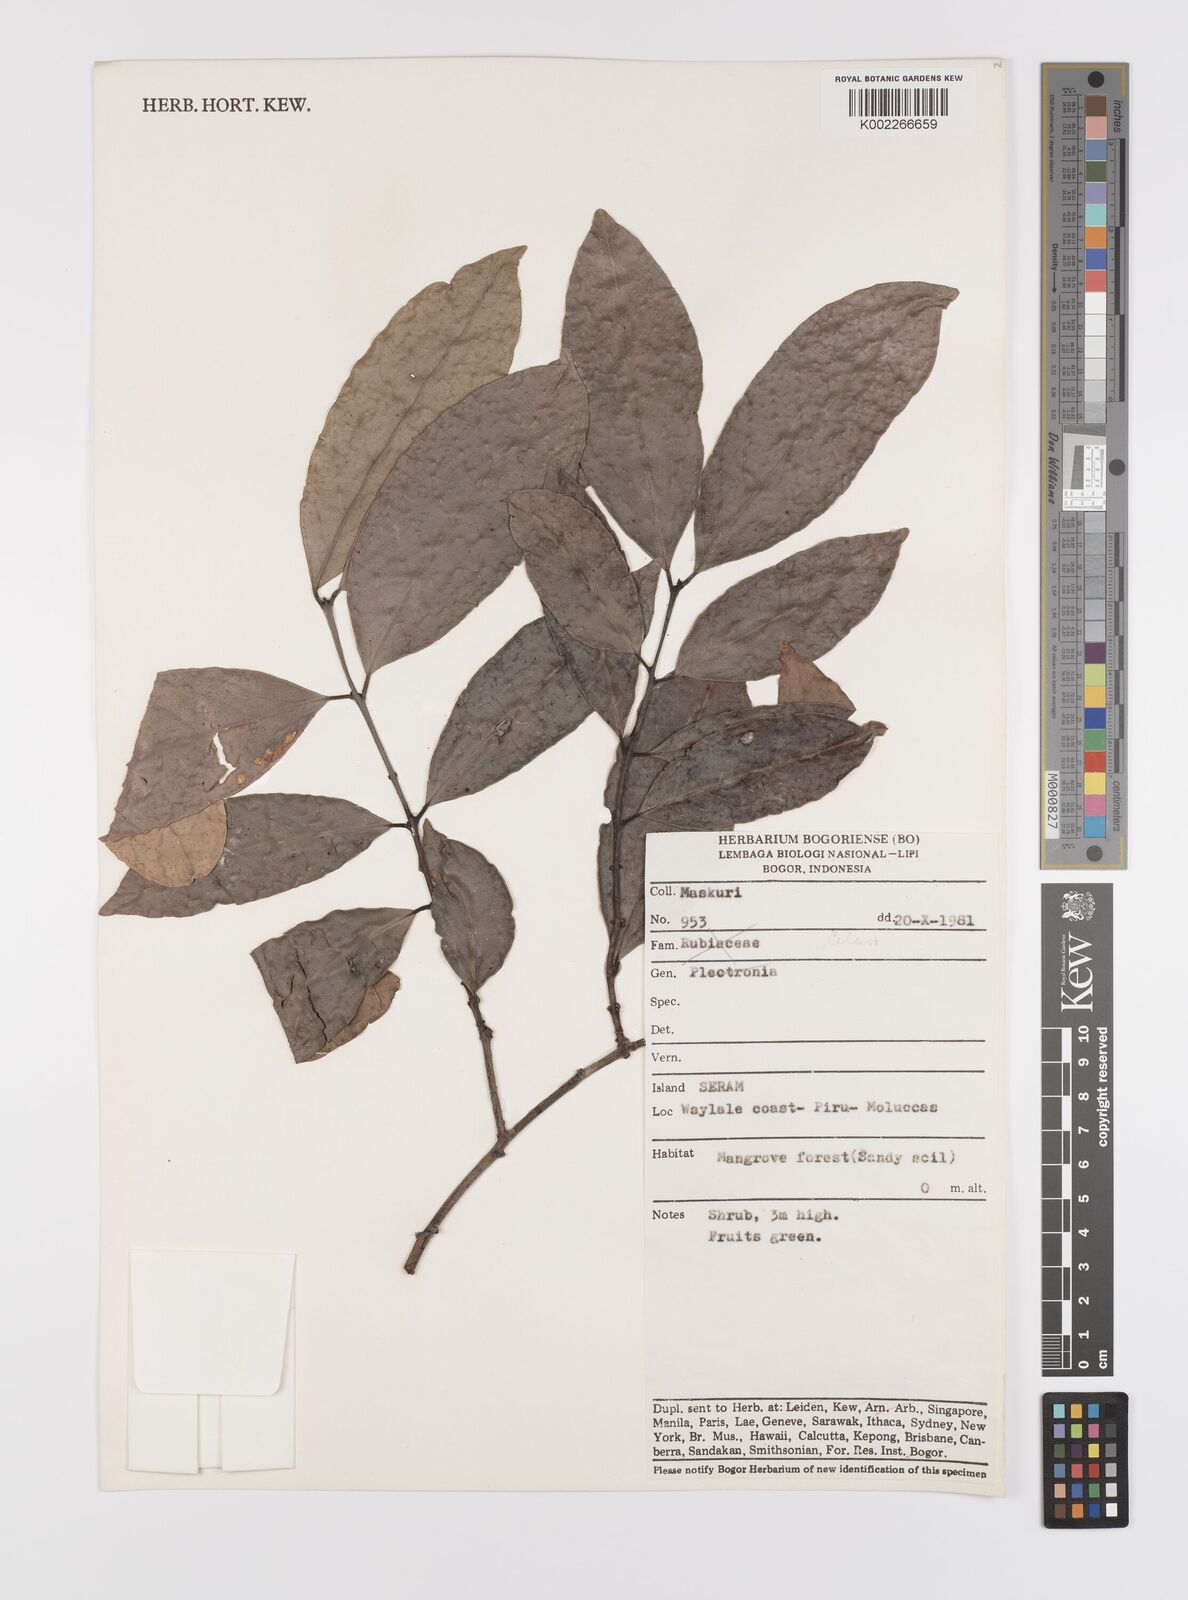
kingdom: Plantae
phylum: Tracheophyta
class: Magnoliopsida
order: Celastrales
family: Celastraceae
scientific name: Celastraceae
